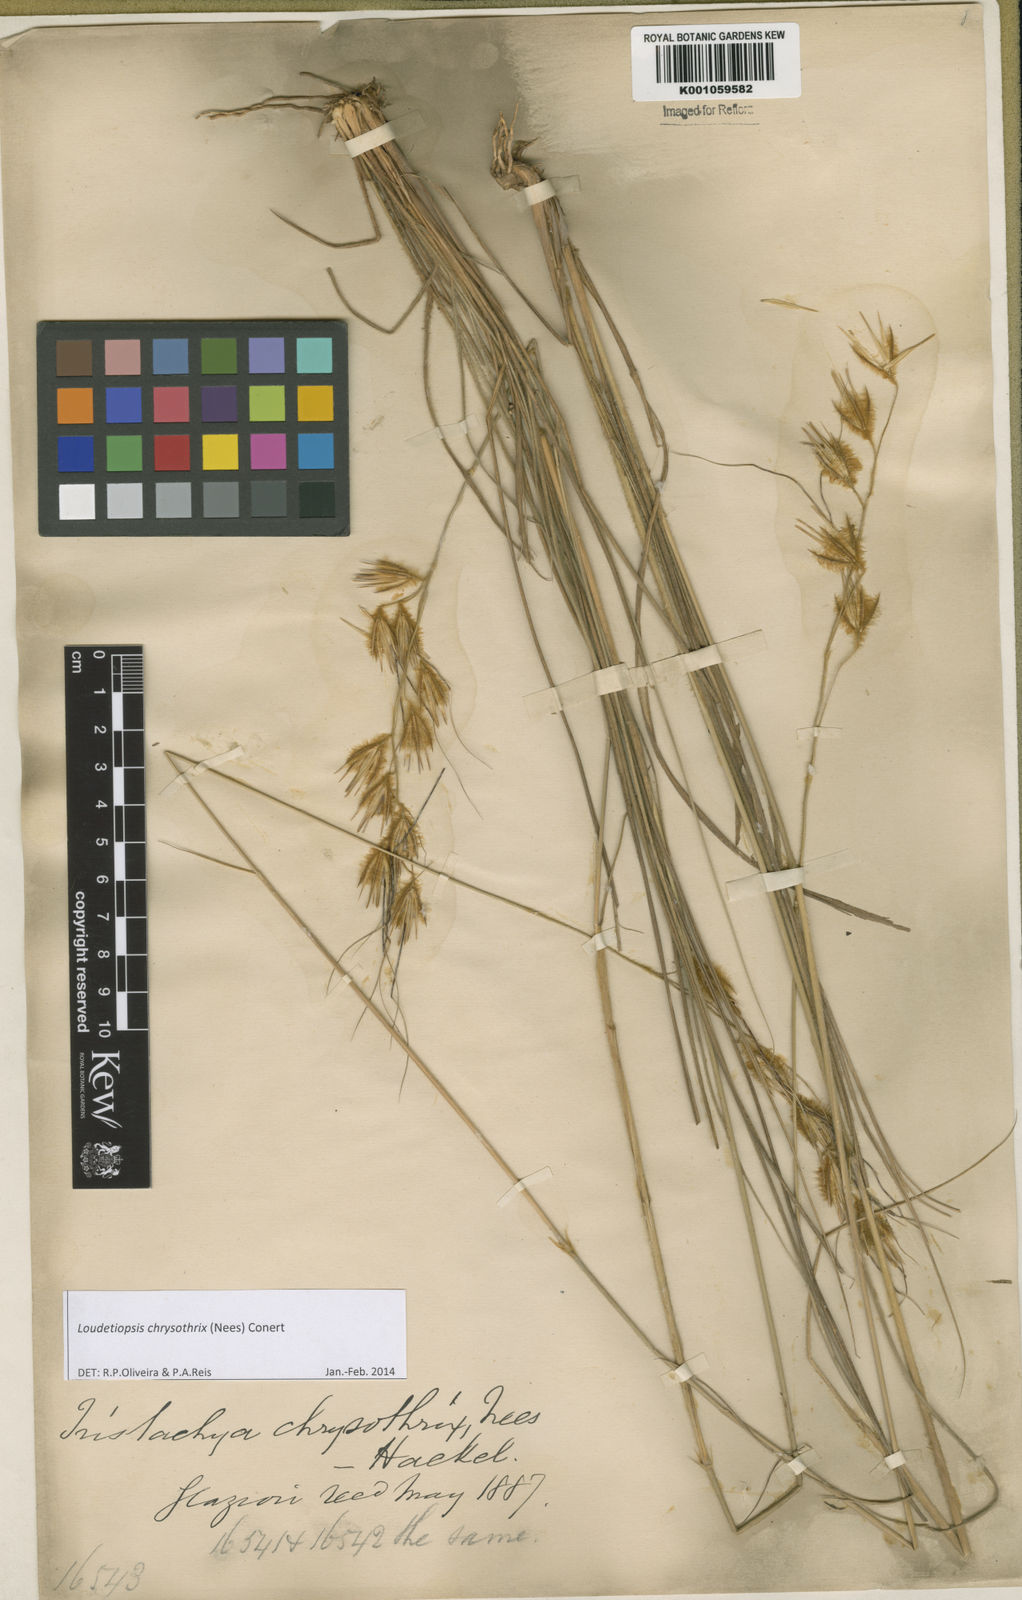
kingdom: Plantae
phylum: Tracheophyta
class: Liliopsida
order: Poales
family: Poaceae
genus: Loudetiopsis
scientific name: Loudetiopsis chrysothrix
